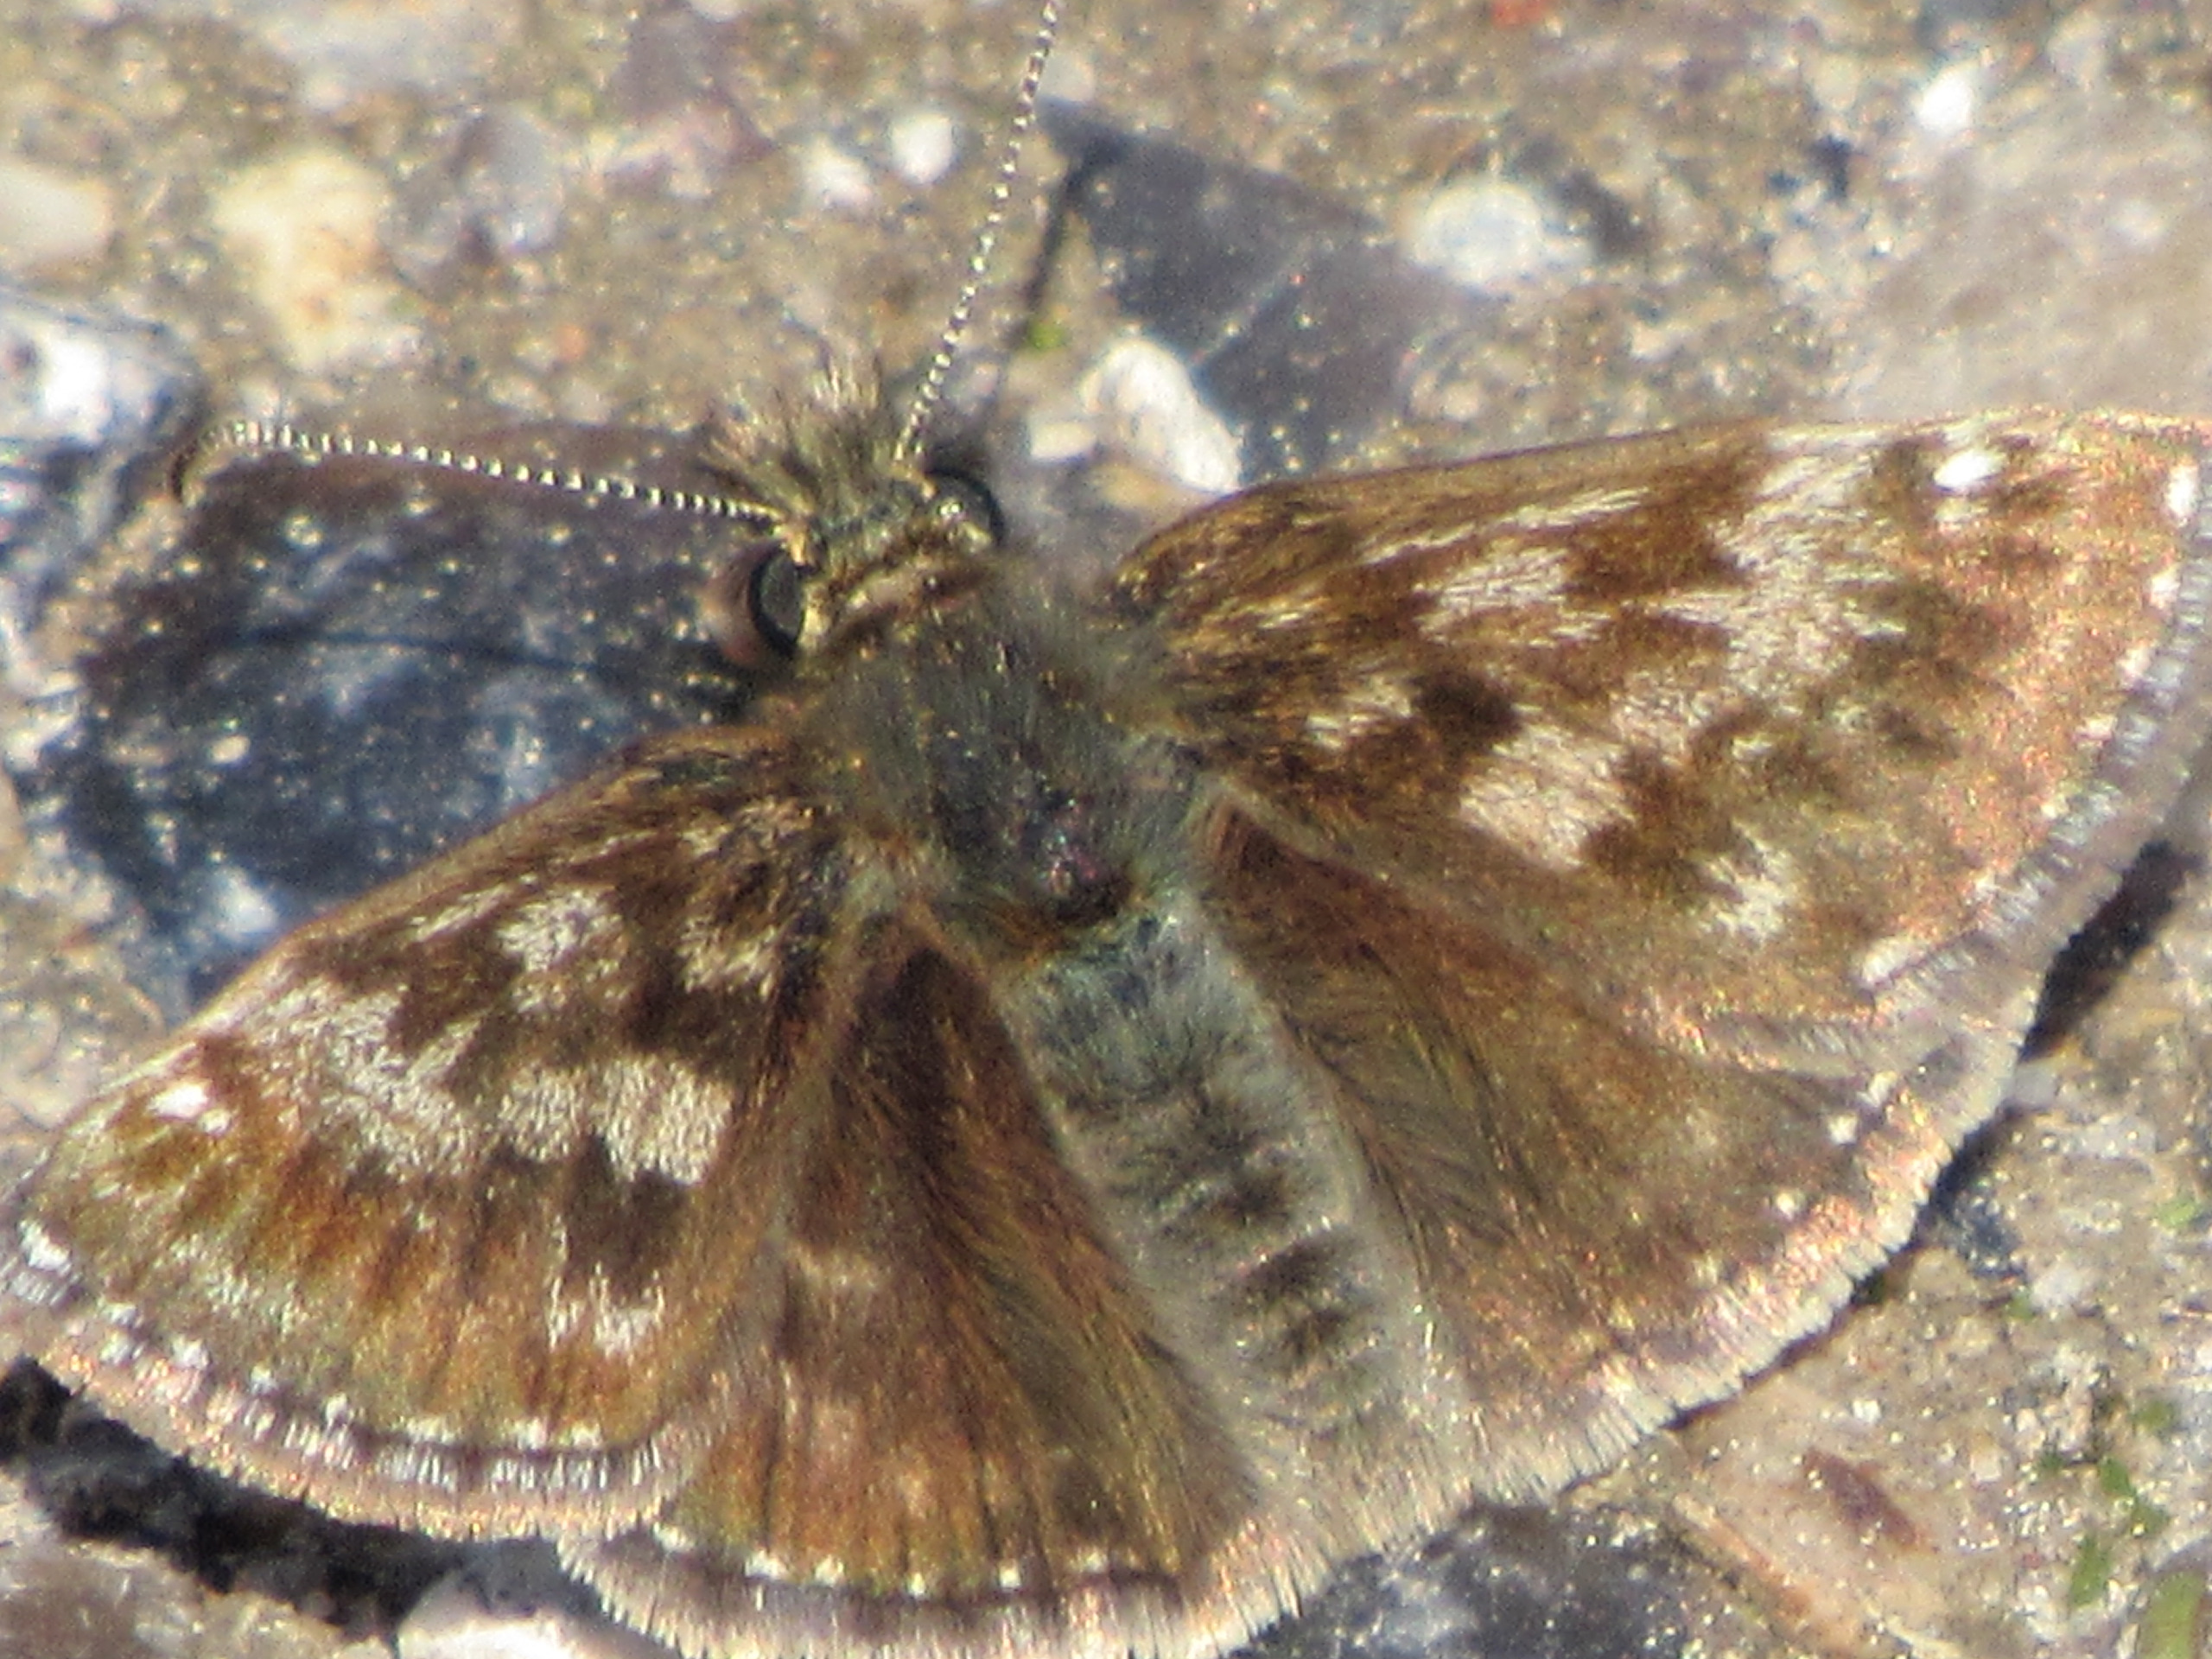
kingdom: Animalia
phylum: Arthropoda
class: Insecta
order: Lepidoptera
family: Hesperiidae
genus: Erynnis
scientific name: Erynnis tages
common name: Gråbåndet bredpande
